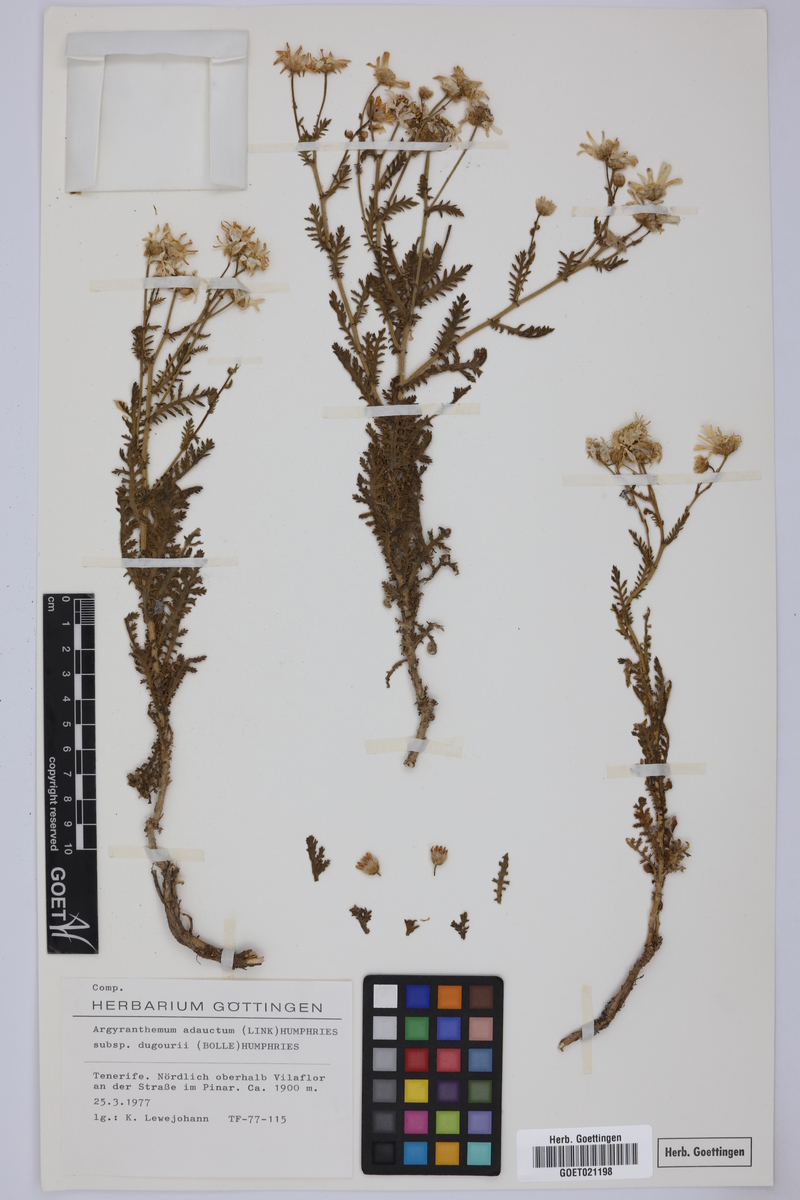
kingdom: Plantae
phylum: Tracheophyta
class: Magnoliopsida
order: Asterales
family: Asteraceae
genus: Argyranthemum
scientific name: Argyranthemum adauctum
